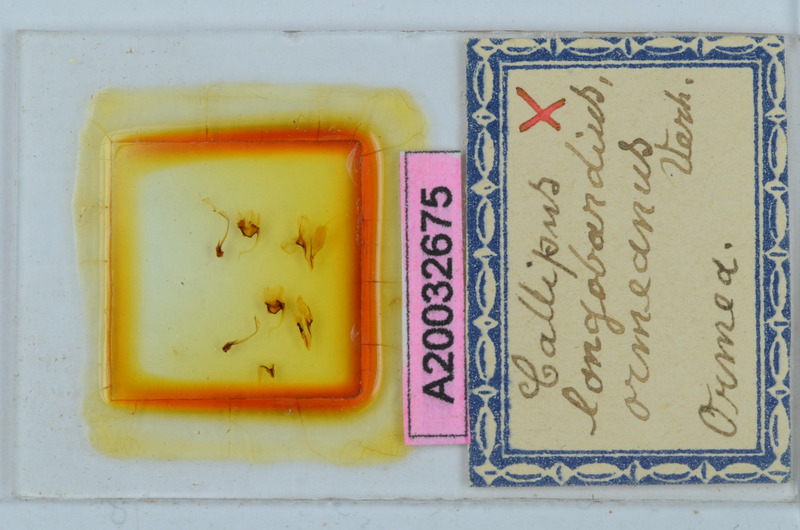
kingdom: Animalia
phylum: Arthropoda
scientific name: Arthropoda
